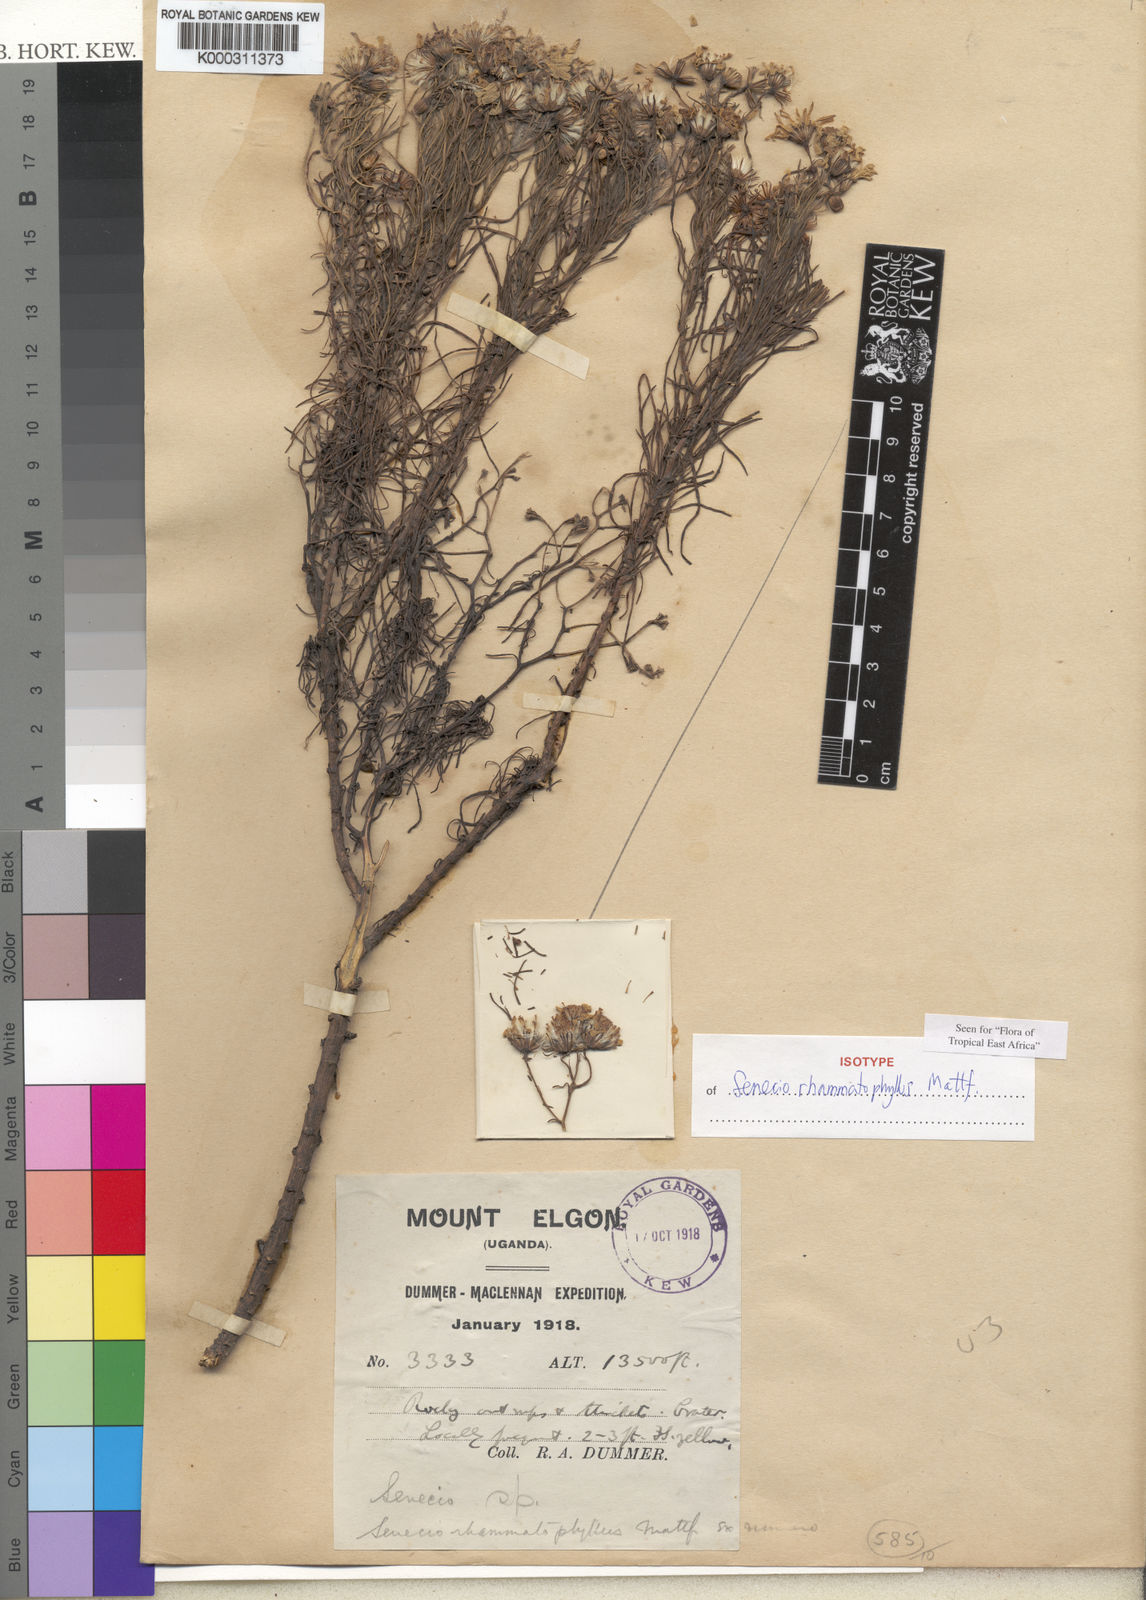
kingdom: Plantae
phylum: Tracheophyta
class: Magnoliopsida
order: Asterales
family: Asteraceae
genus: Senecio
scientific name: Senecio rhammatophyllus
